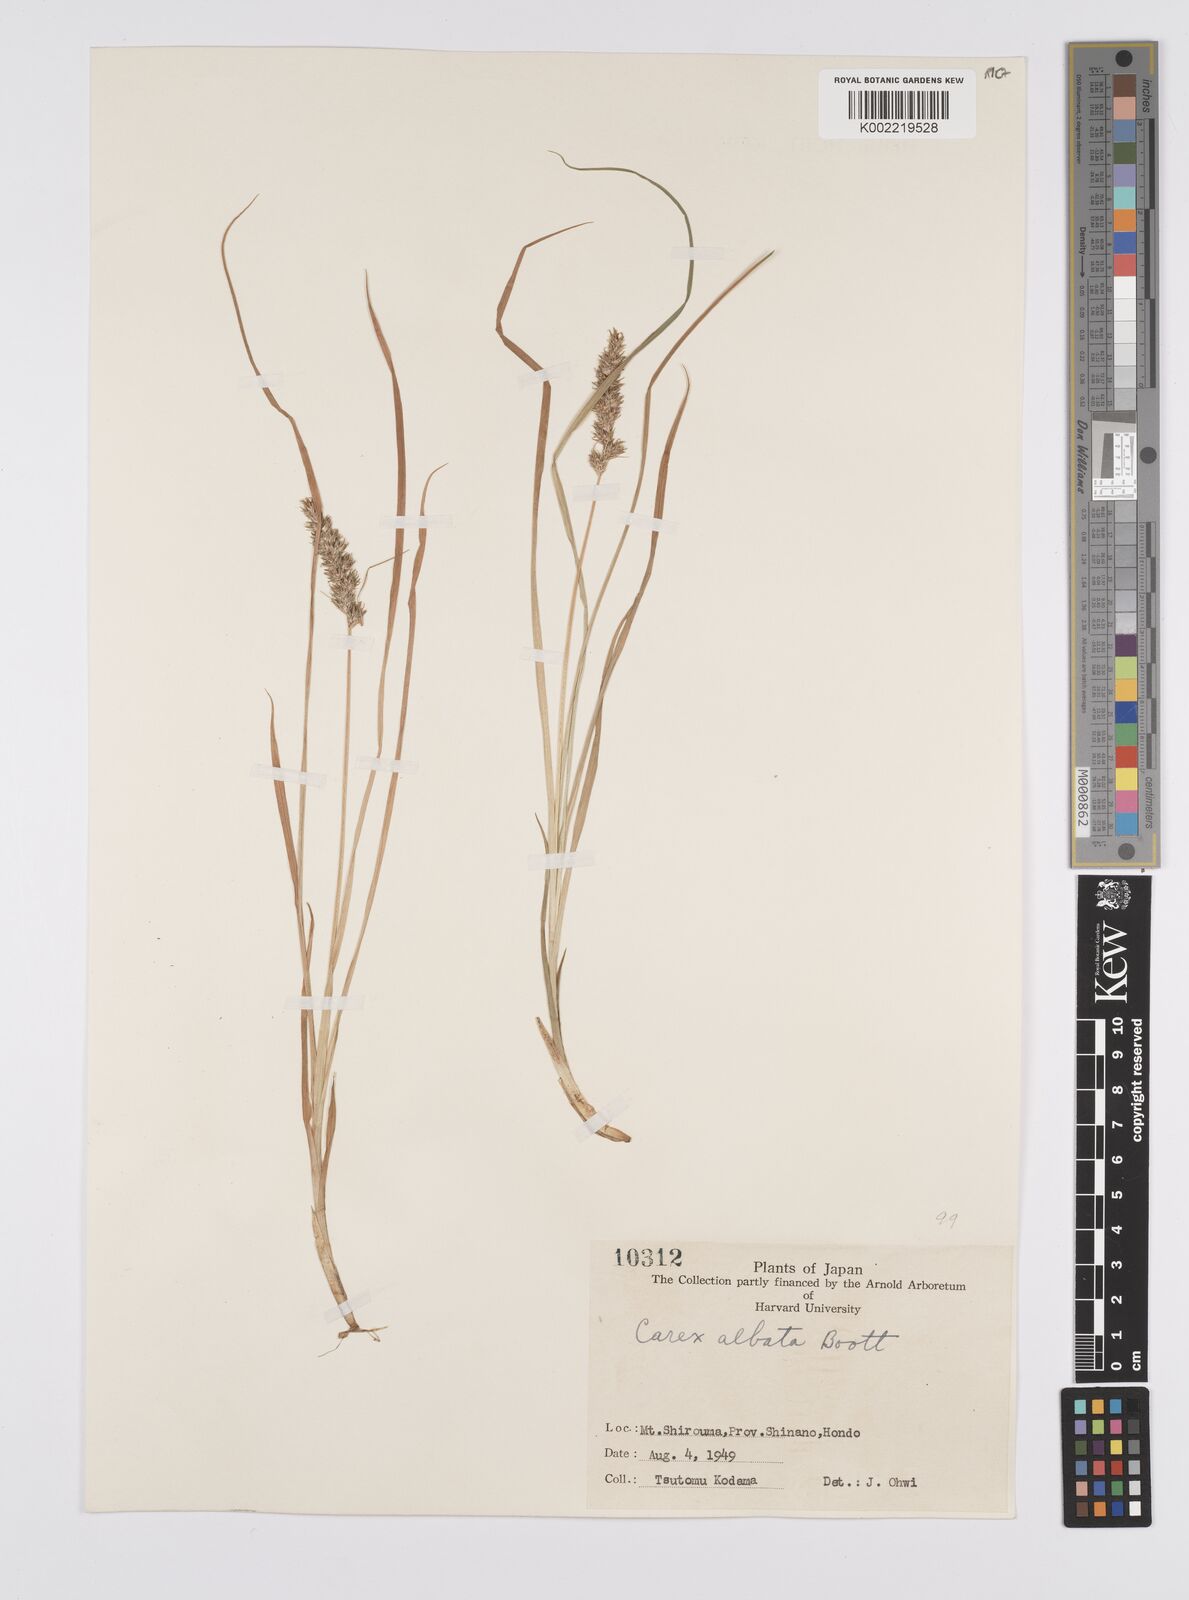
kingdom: Plantae
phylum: Tracheophyta
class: Liliopsida
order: Poales
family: Cyperaceae
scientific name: Cyperaceae
